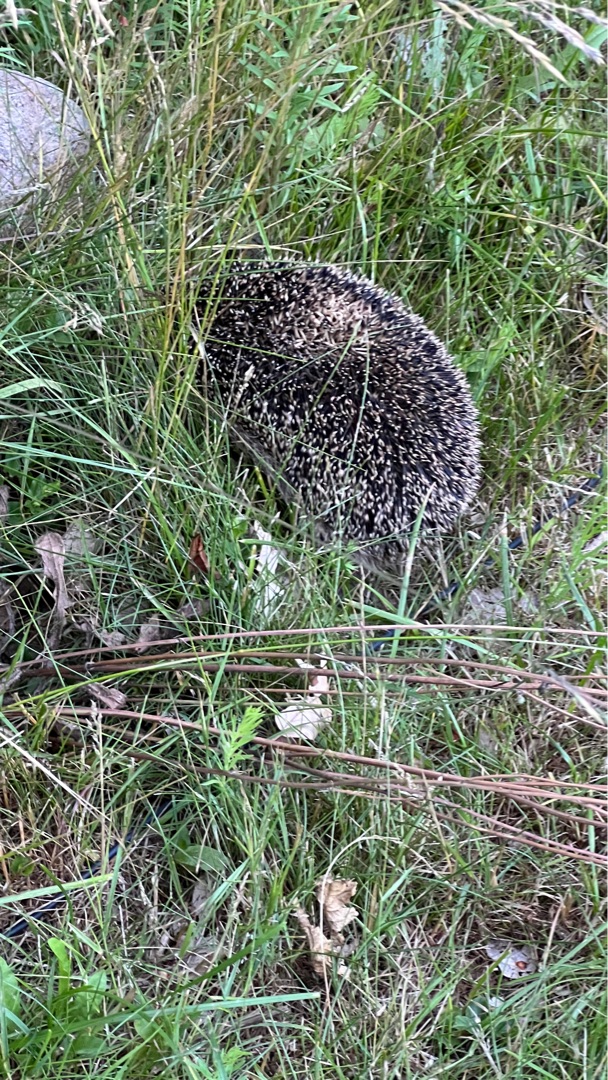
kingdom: Animalia
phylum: Chordata
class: Mammalia
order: Erinaceomorpha
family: Erinaceidae
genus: Erinaceus
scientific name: Erinaceus europaeus
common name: Pindsvin
